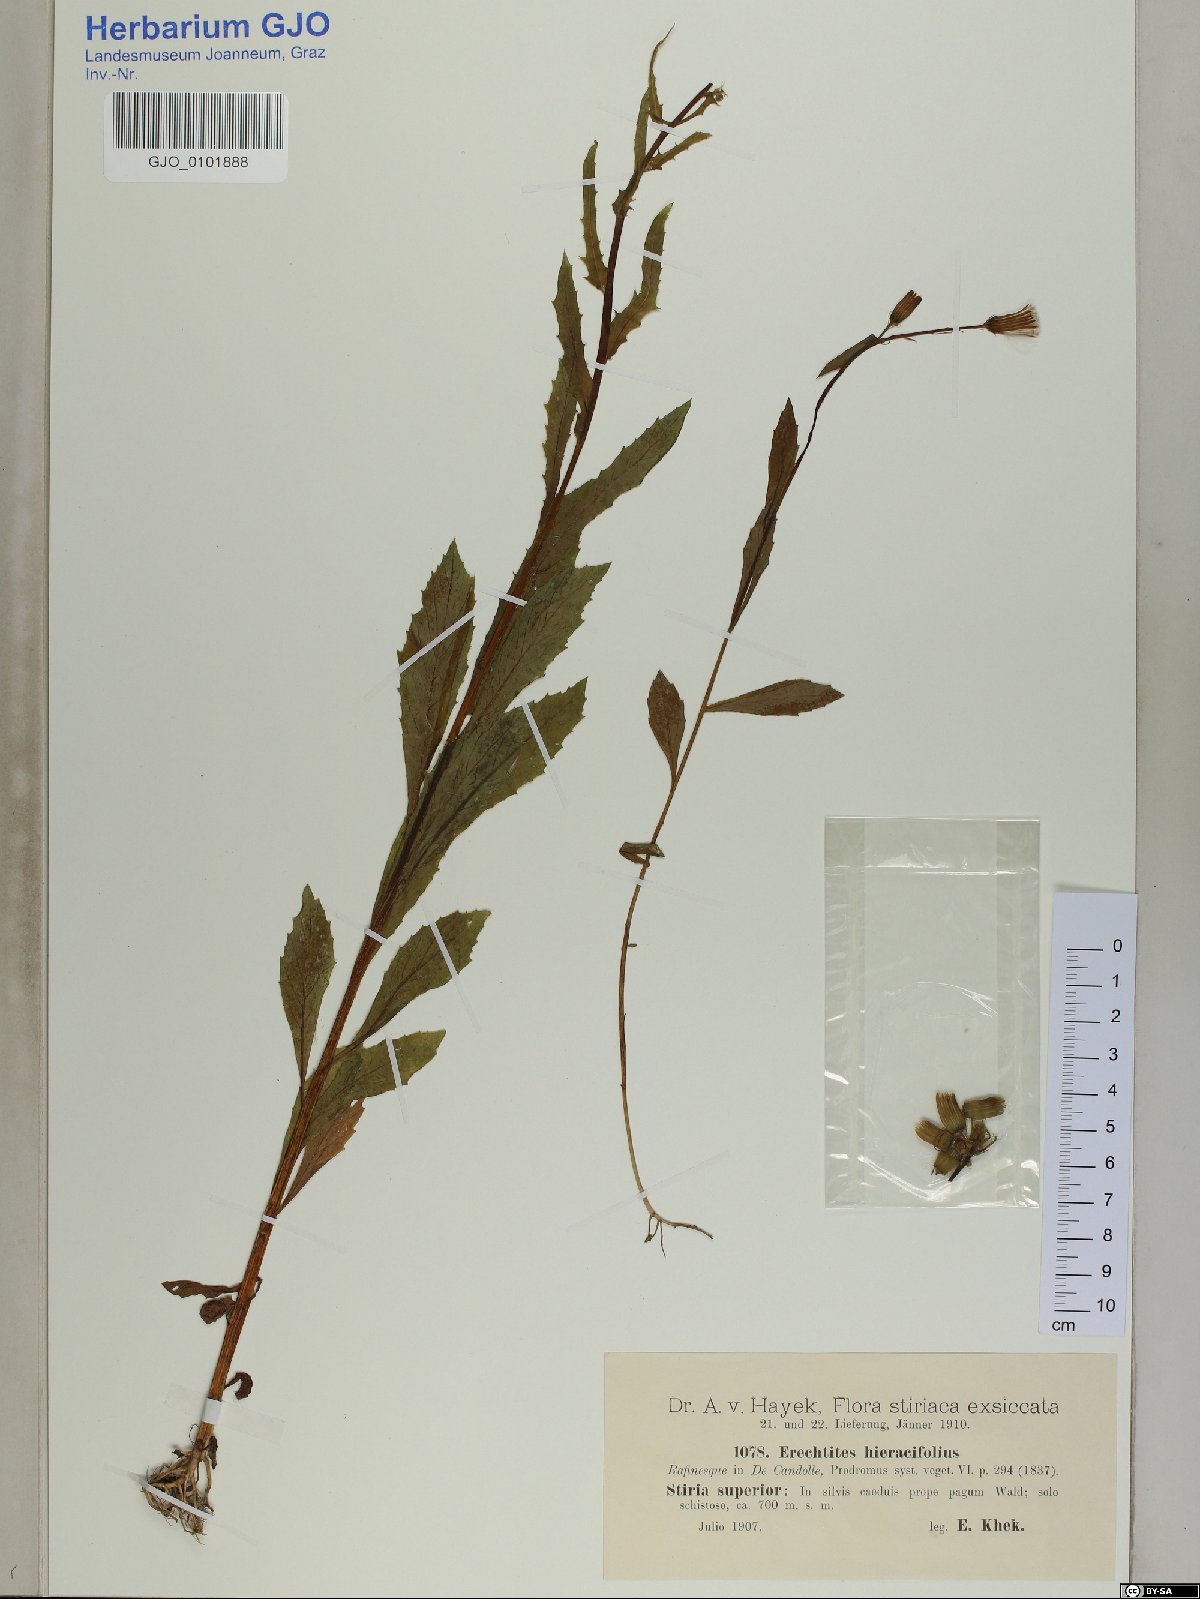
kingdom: Plantae
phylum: Tracheophyta
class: Magnoliopsida
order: Asterales
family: Asteraceae
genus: Erechtites
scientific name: Erechtites hieraciifolius
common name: American burnweed
